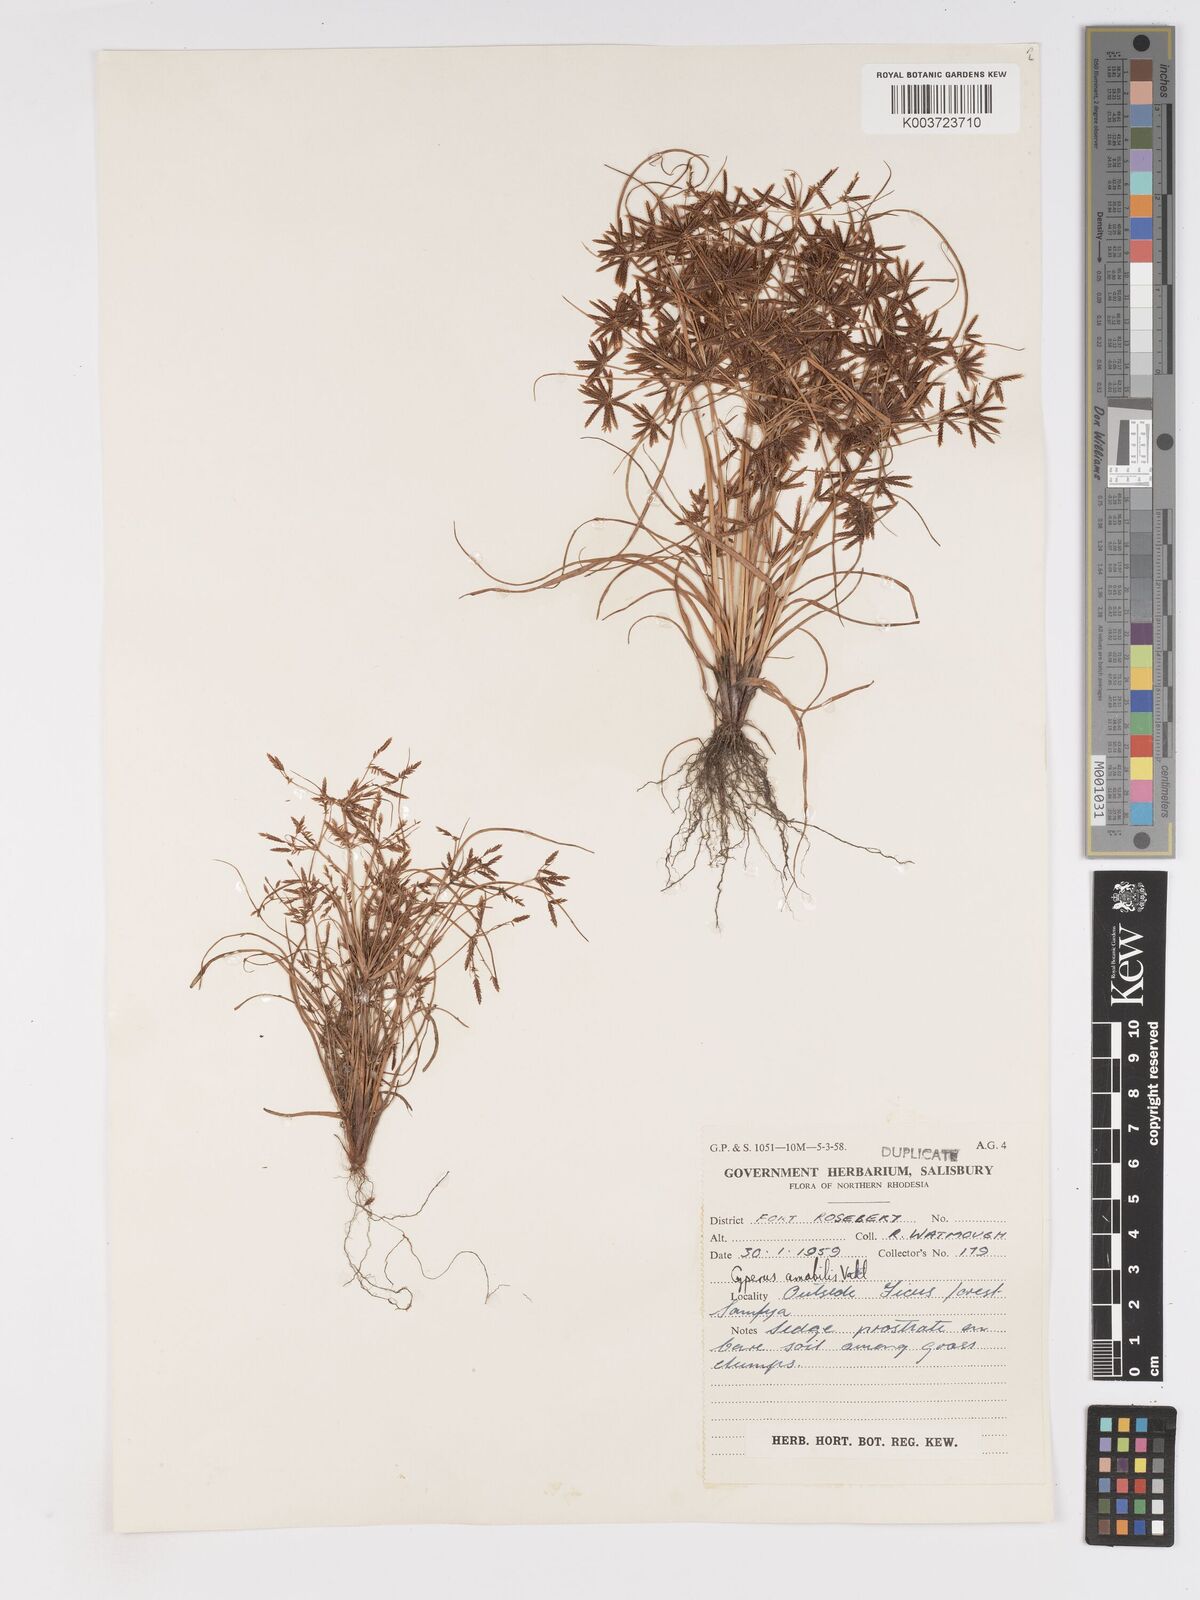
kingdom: Plantae
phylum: Tracheophyta
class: Liliopsida
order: Poales
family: Cyperaceae
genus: Cyperus
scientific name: Cyperus amabilis
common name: Foothill flat sedge
